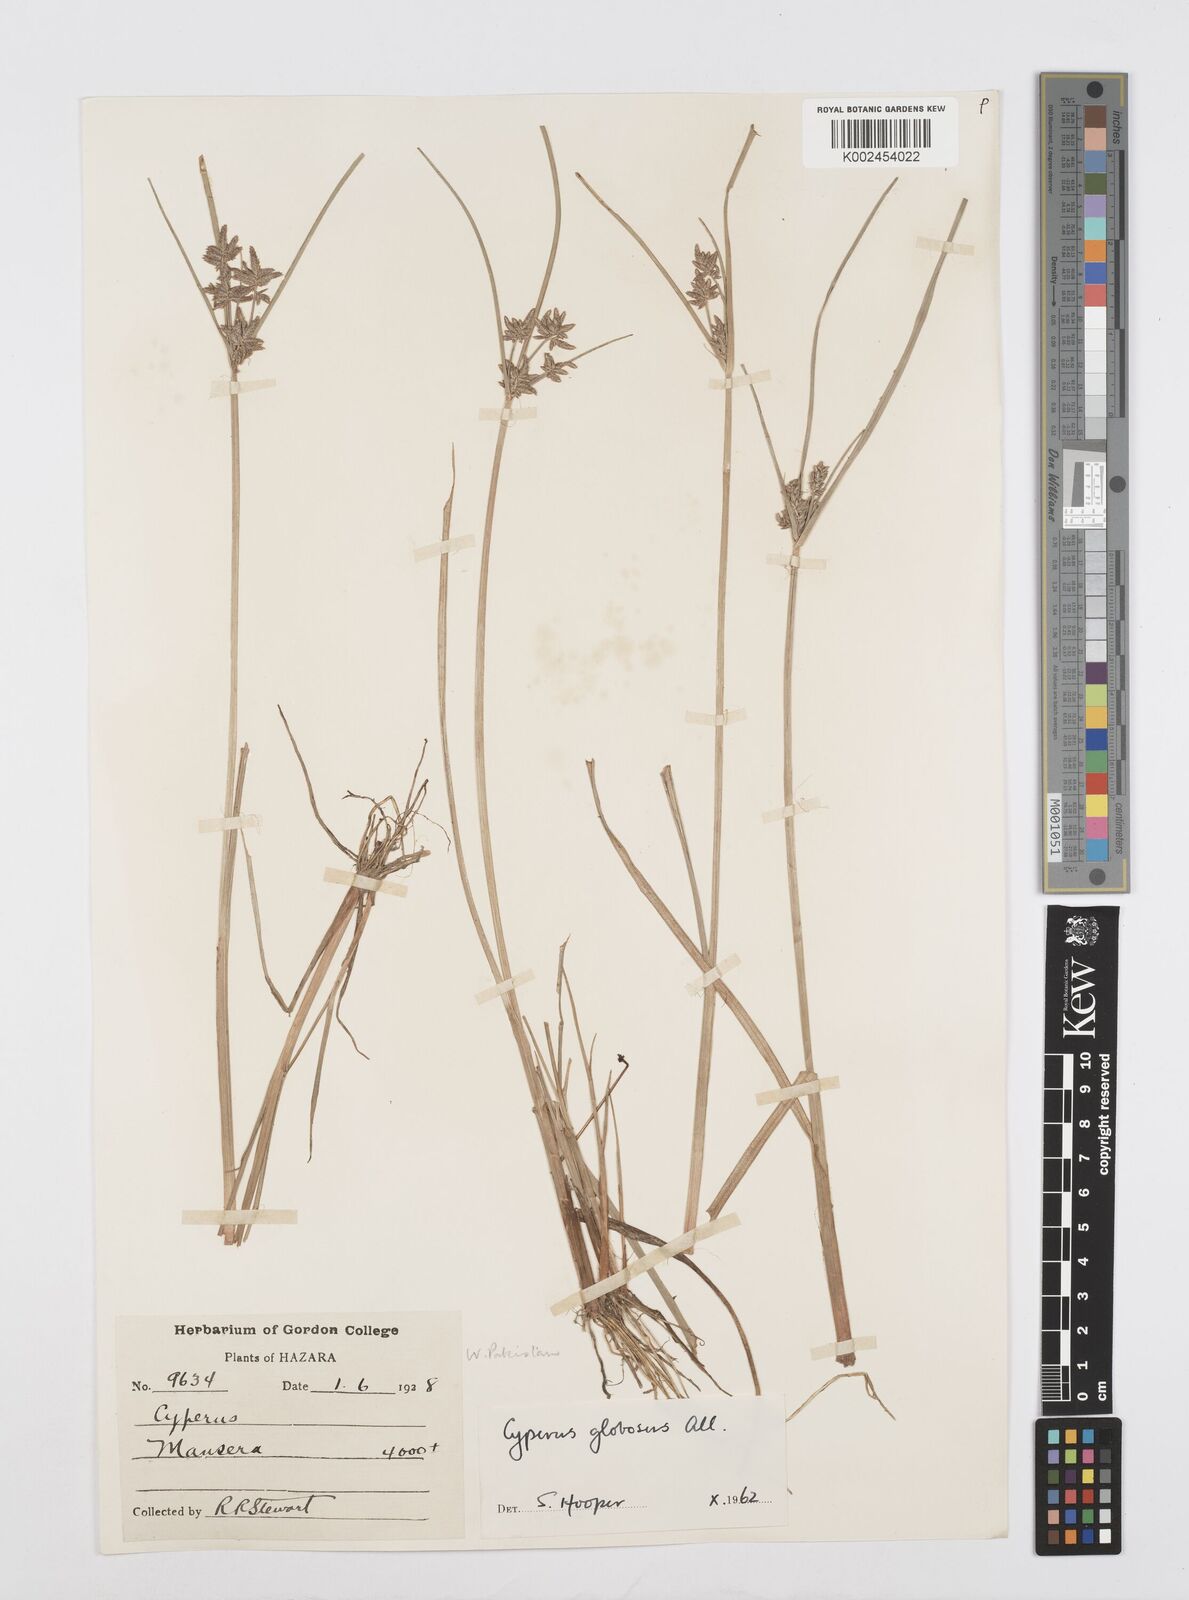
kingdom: Plantae
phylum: Tracheophyta
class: Liliopsida
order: Poales
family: Cyperaceae
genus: Cyperus
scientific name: Cyperus flavidus
